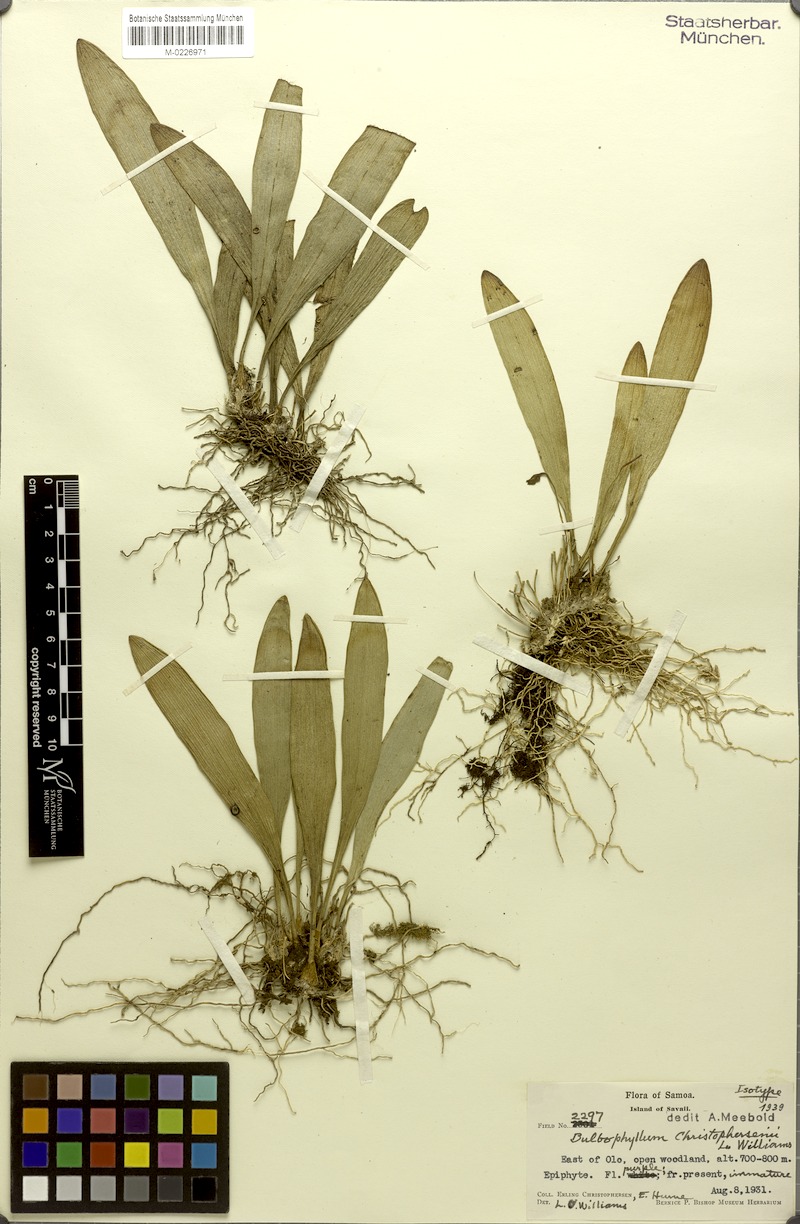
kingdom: Plantae
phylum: Tracheophyta
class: Liliopsida
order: Asparagales
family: Orchidaceae
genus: Bulbophyllum
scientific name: Bulbophyllum samoanum
